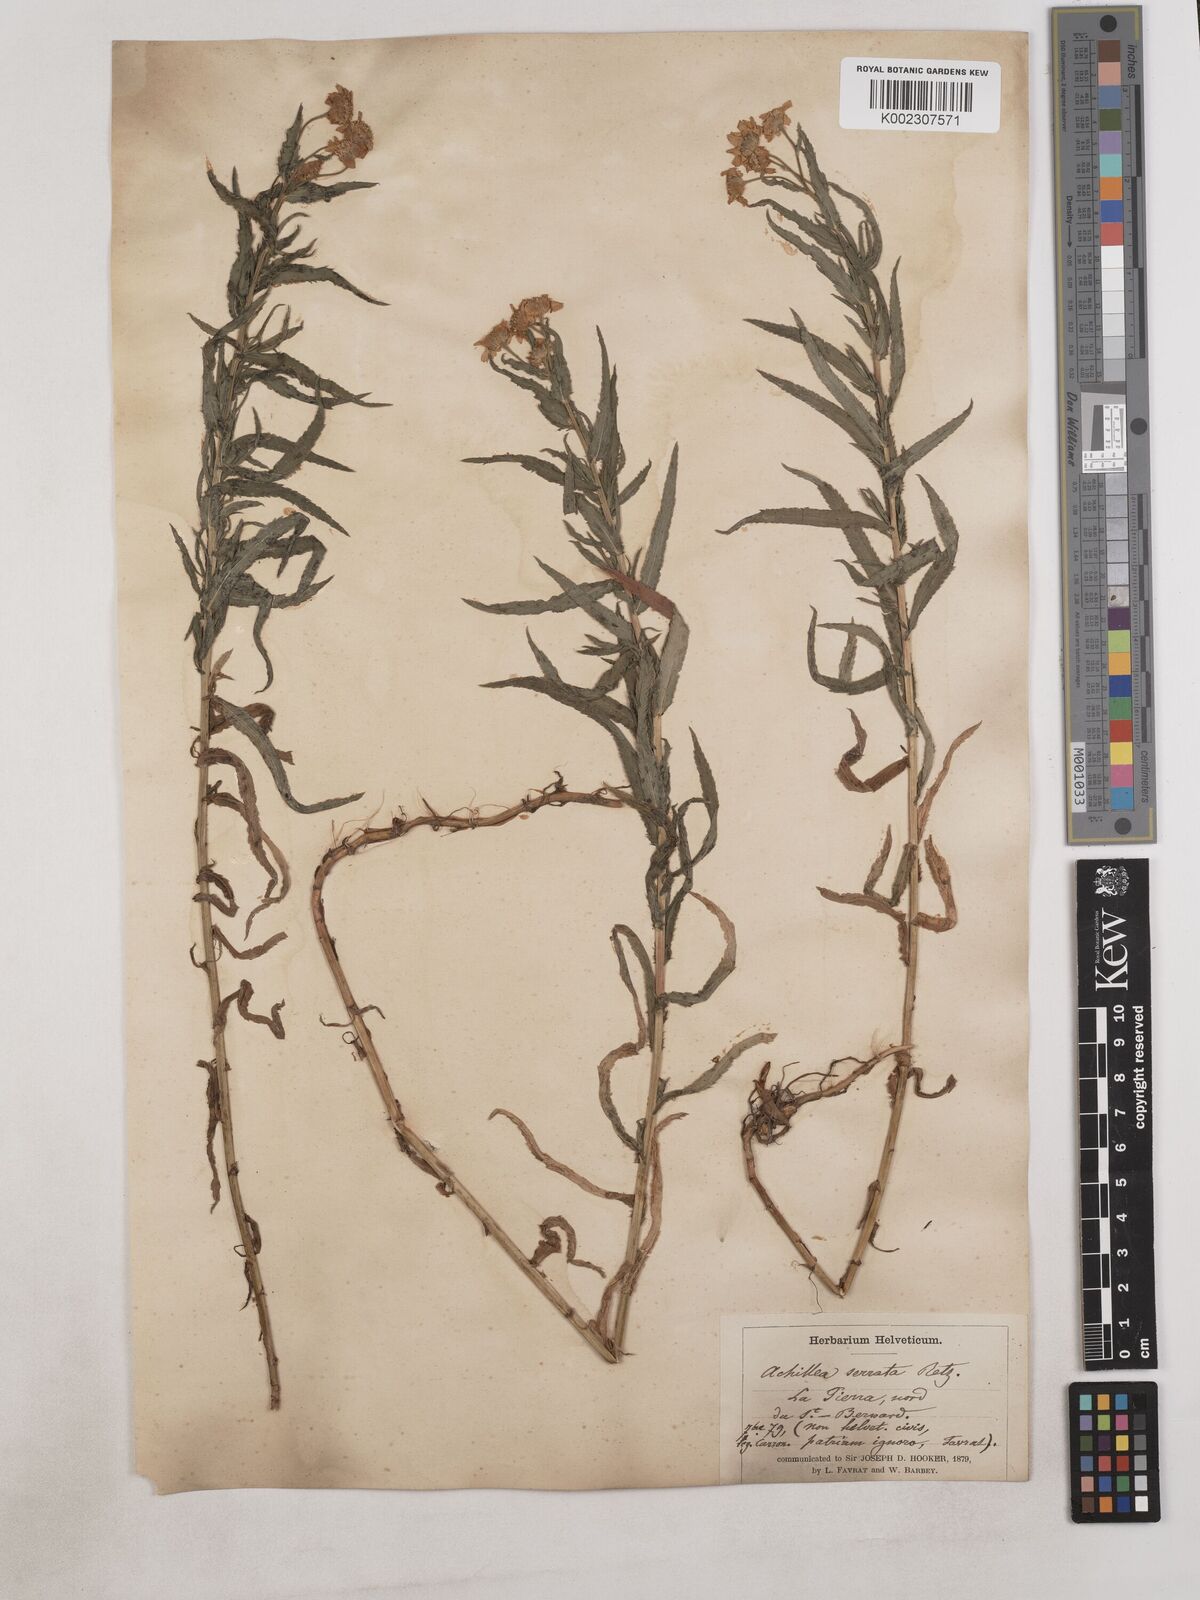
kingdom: Plantae
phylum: Tracheophyta
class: Magnoliopsida
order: Asterales
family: Asteraceae
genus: Achillea
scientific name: Achillea serrata
